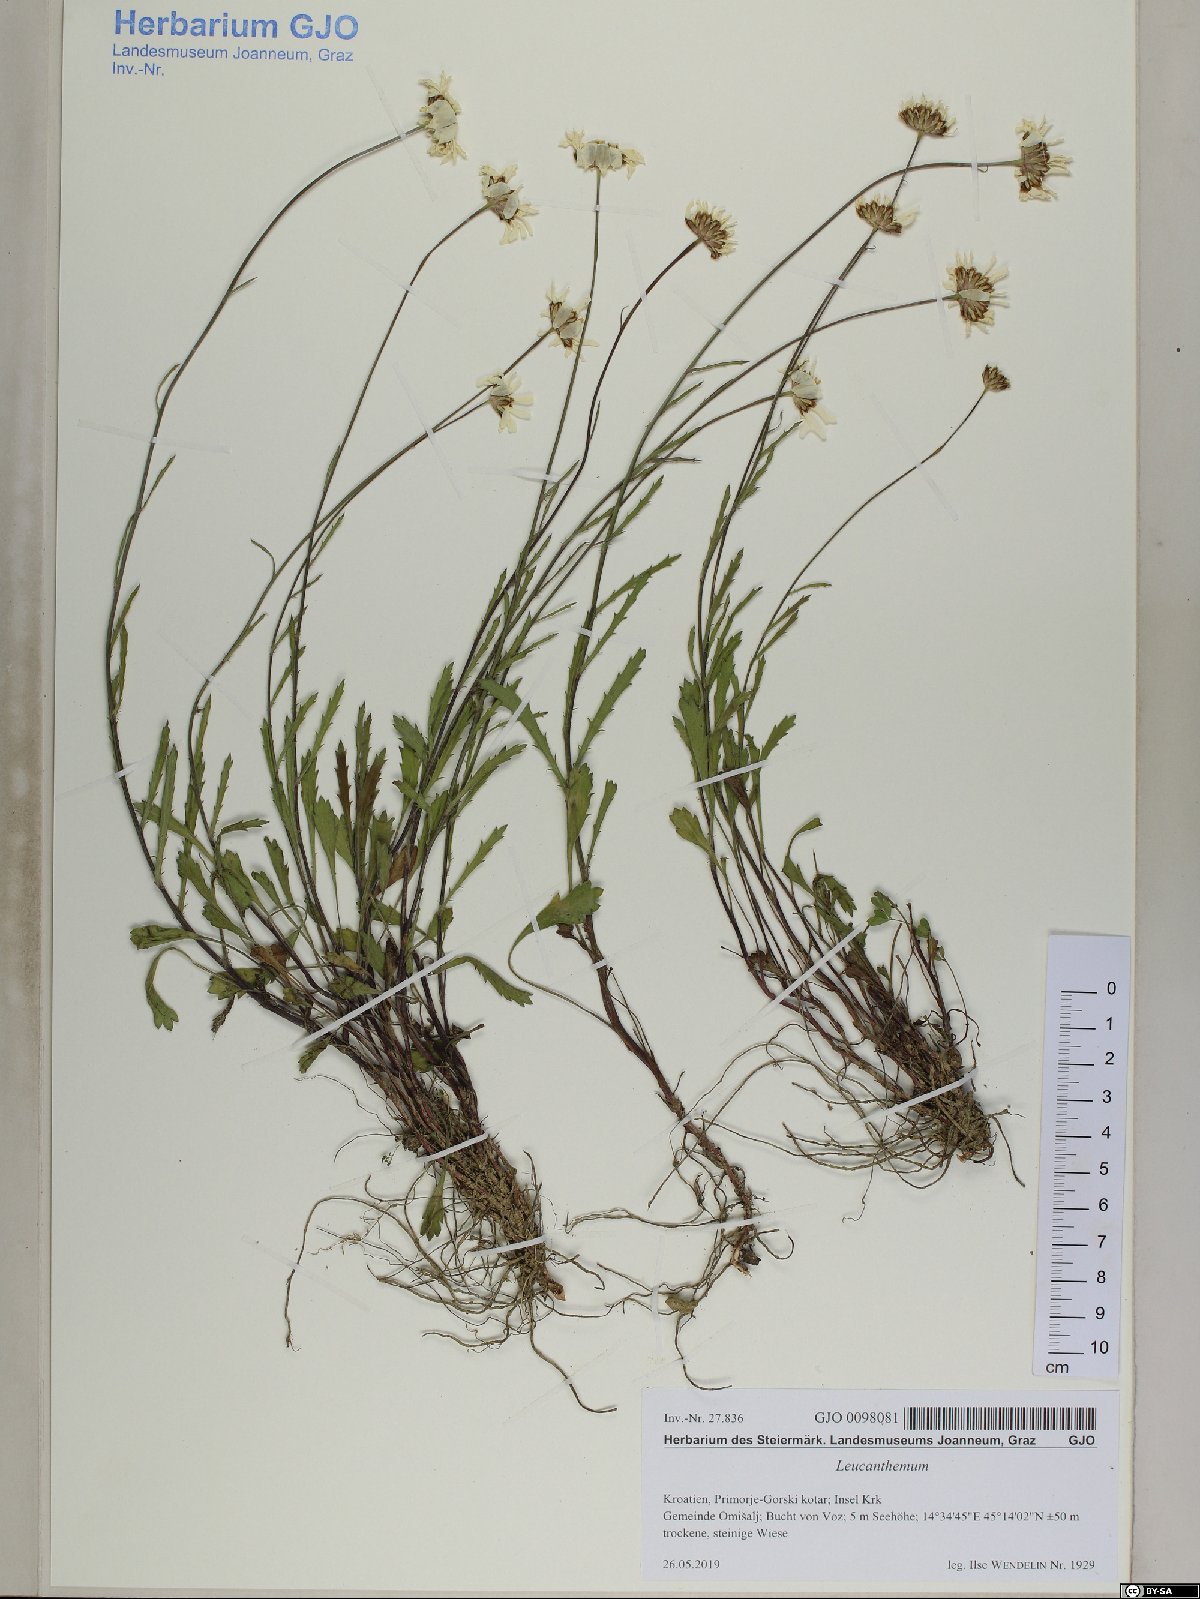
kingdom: Plantae
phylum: Tracheophyta
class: Magnoliopsida
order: Asterales
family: Asteraceae
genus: Leucanthemum
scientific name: Leucanthemum platylepis
